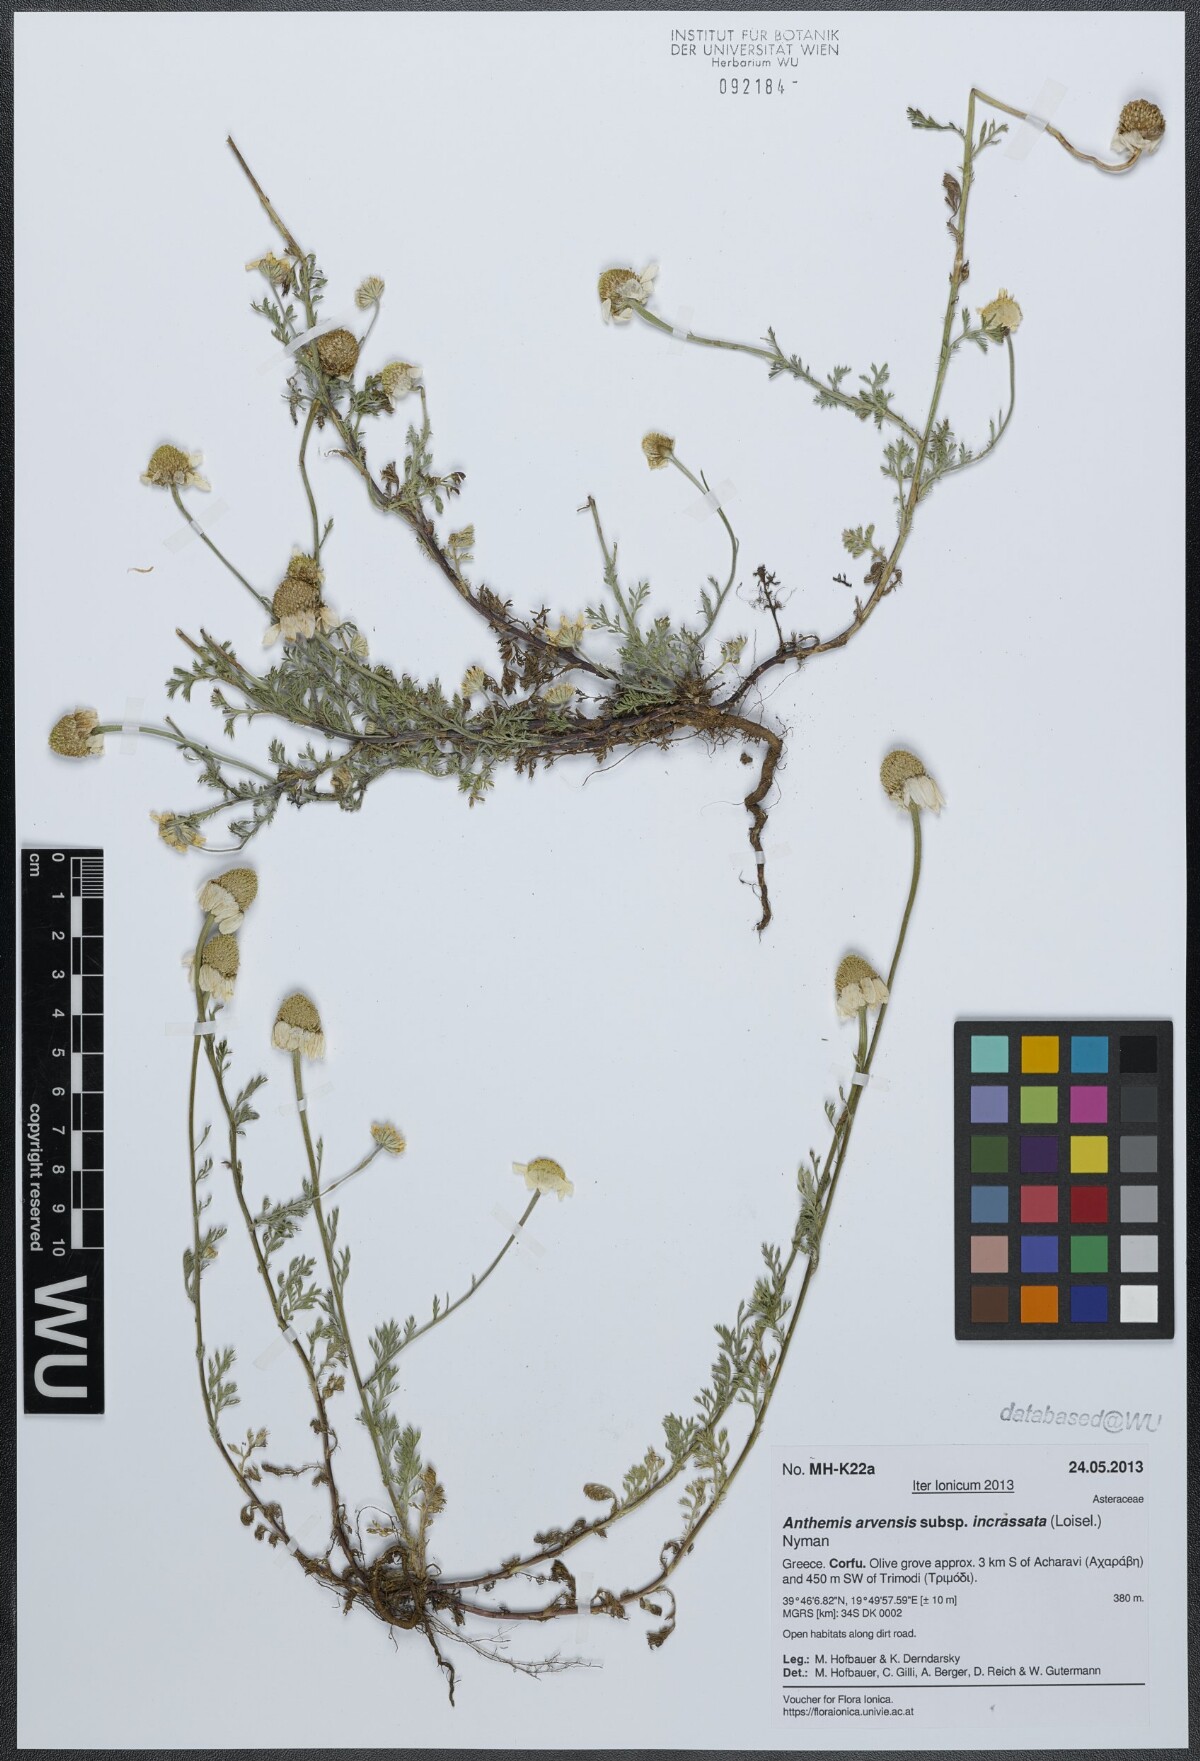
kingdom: Plantae
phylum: Tracheophyta
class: Magnoliopsida
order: Asterales
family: Asteraceae
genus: Anthemis
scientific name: Anthemis arvensis
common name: Corn chamomile
